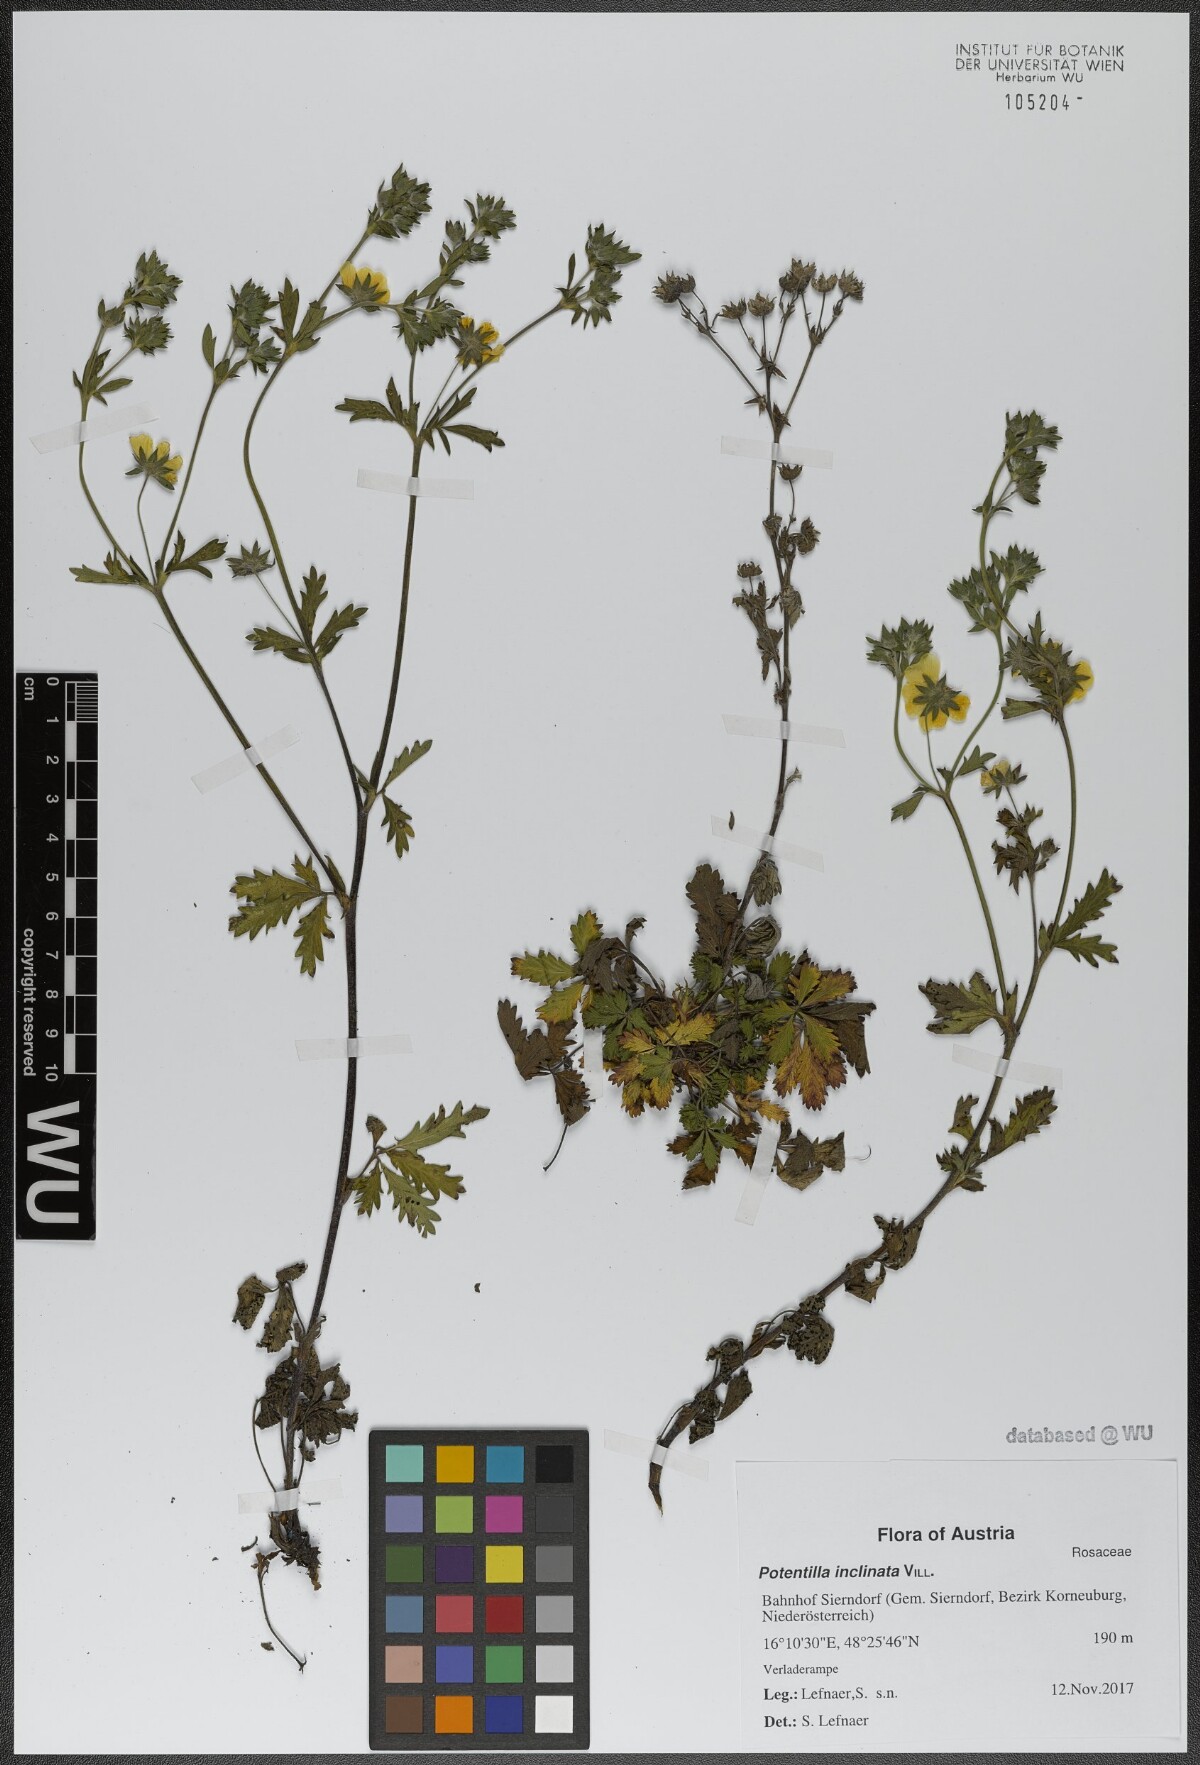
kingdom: Plantae
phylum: Tracheophyta
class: Magnoliopsida
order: Rosales
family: Rosaceae
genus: Potentilla
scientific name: Potentilla inclinata
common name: Grey cinquefoil
